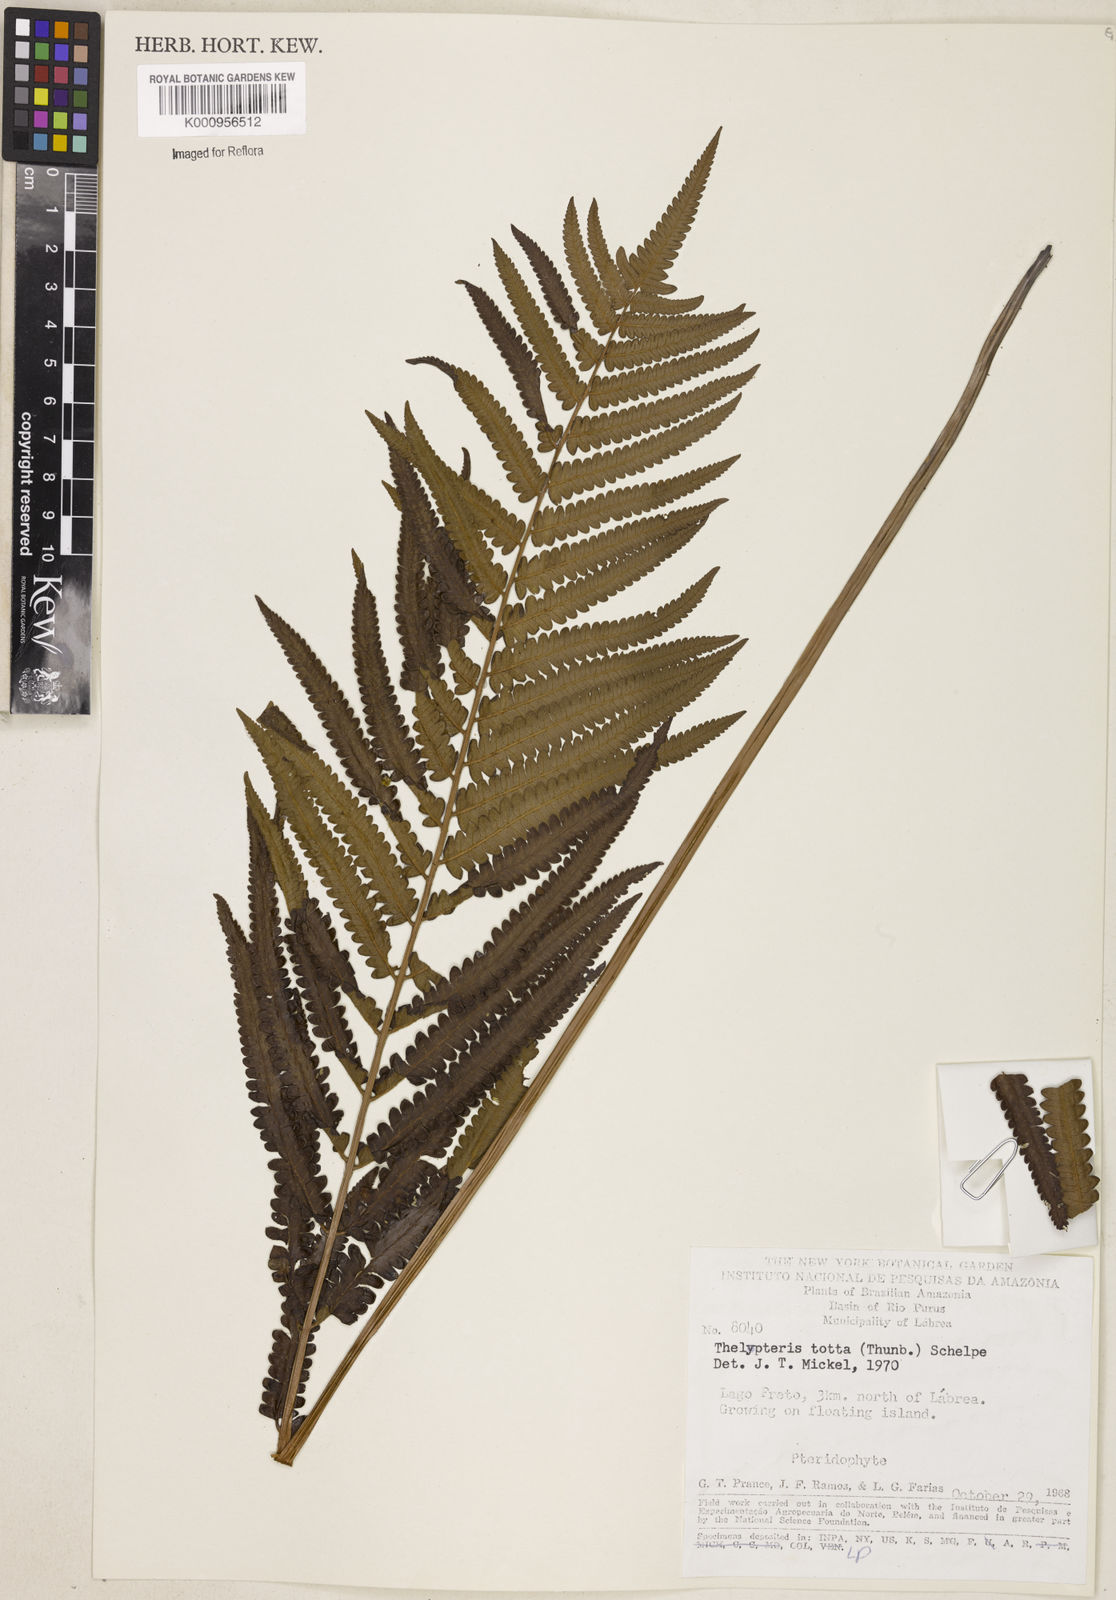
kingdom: Plantae
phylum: Tracheophyta
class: Polypodiopsida
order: Polypodiales
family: Thelypteridaceae
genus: Cyclosorus
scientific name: Cyclosorus interruptus
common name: Neke fern
